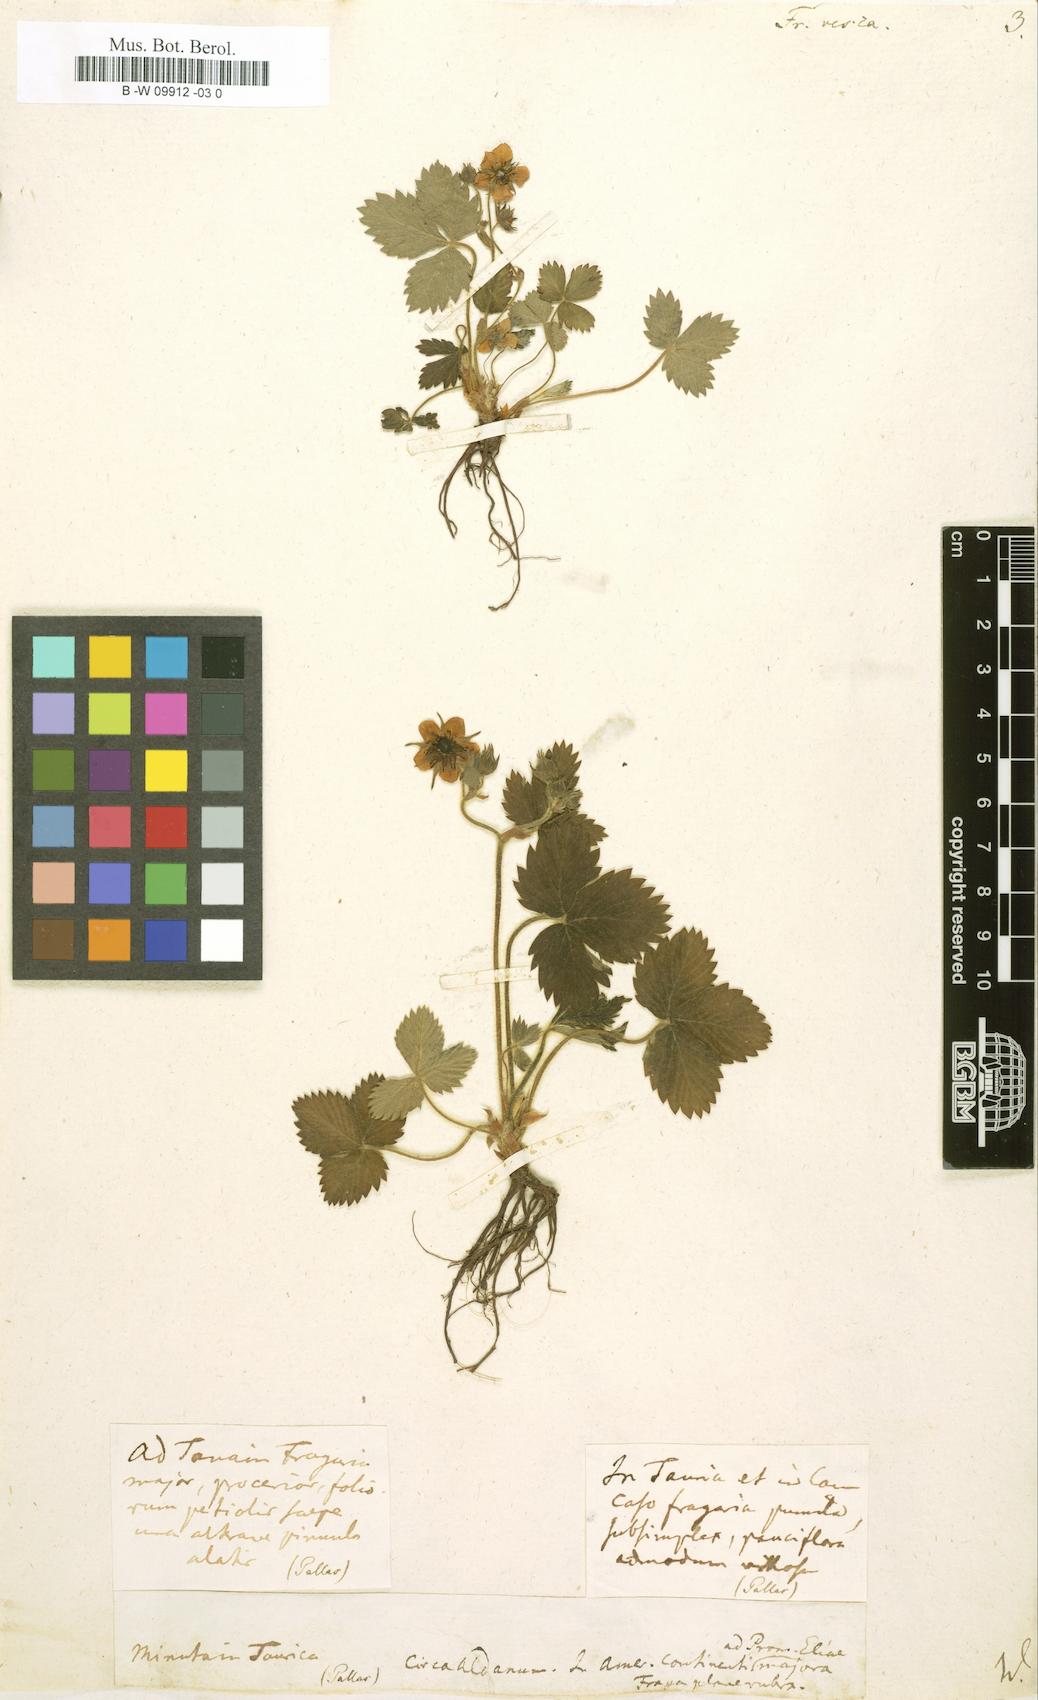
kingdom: Plantae
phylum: Tracheophyta
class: Magnoliopsida
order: Rosales
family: Rosaceae
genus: Fragaria
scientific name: Fragaria vesca
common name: Wild strawberry
